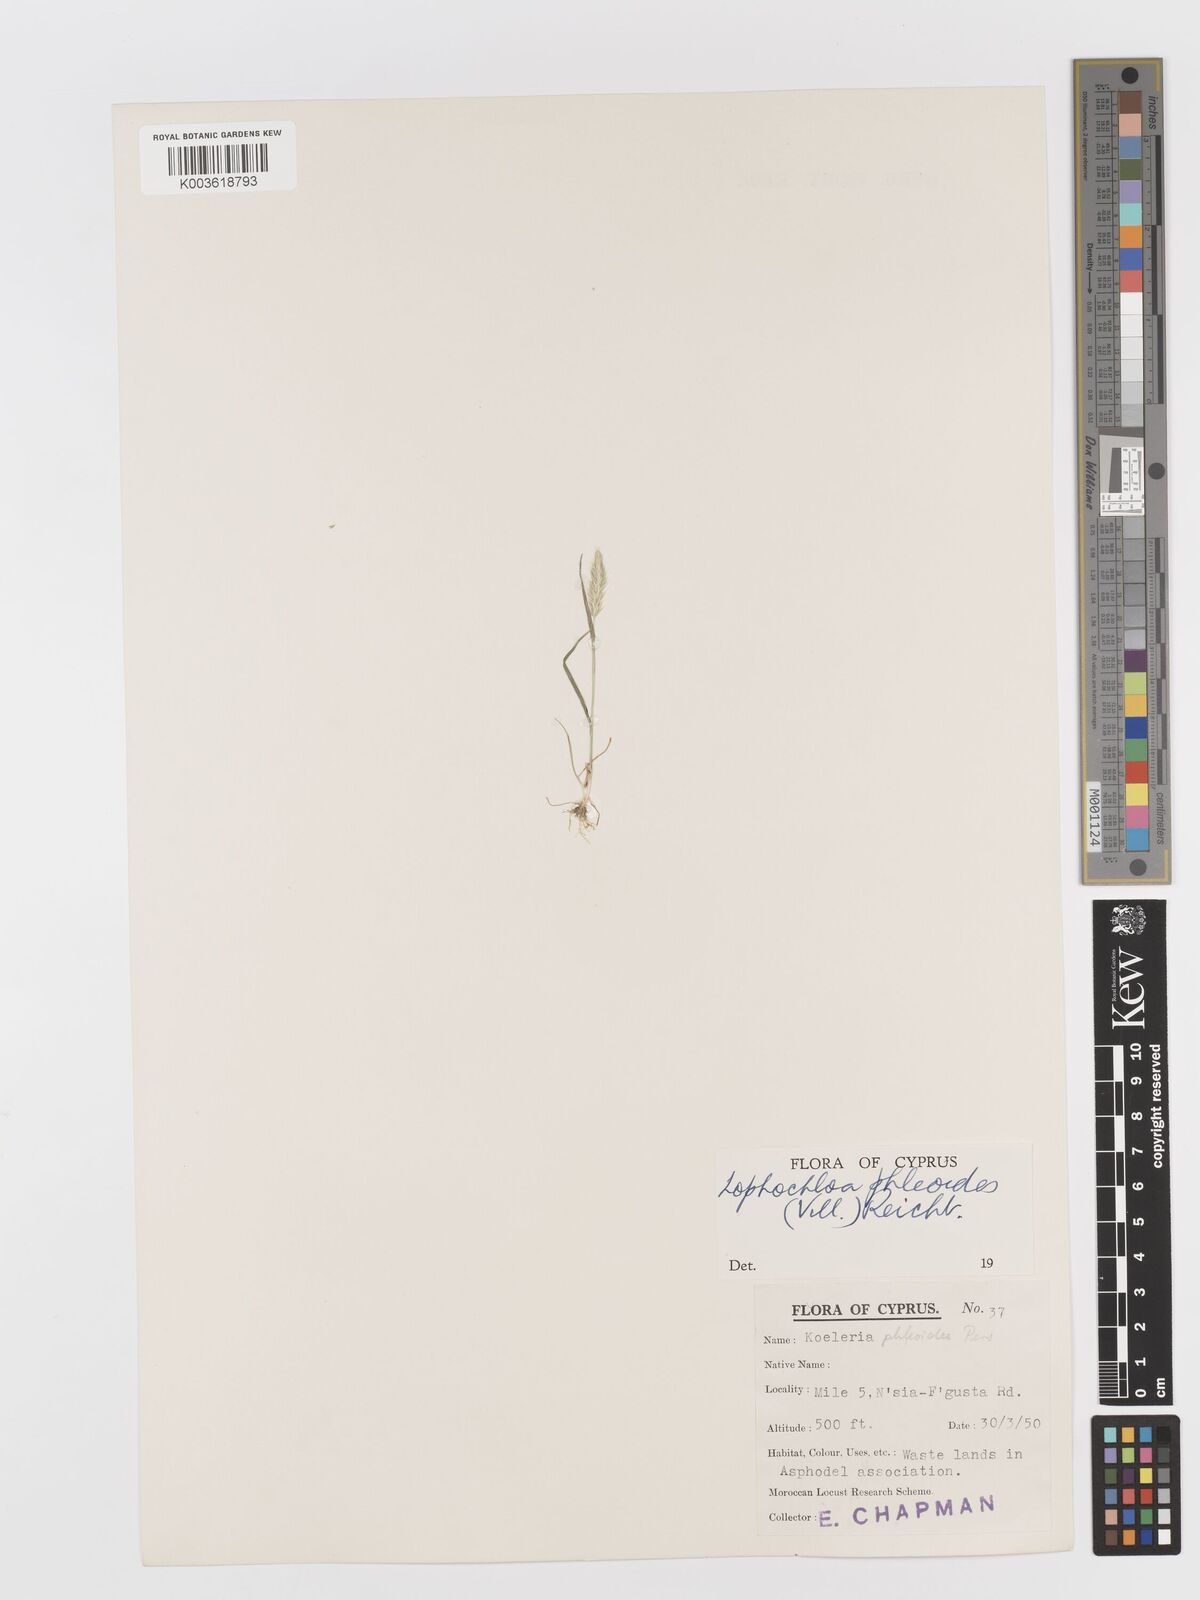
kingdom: Plantae
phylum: Tracheophyta
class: Liliopsida
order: Poales
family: Poaceae
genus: Rostraria
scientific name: Rostraria cristata
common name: Mediterranean hair-grass
